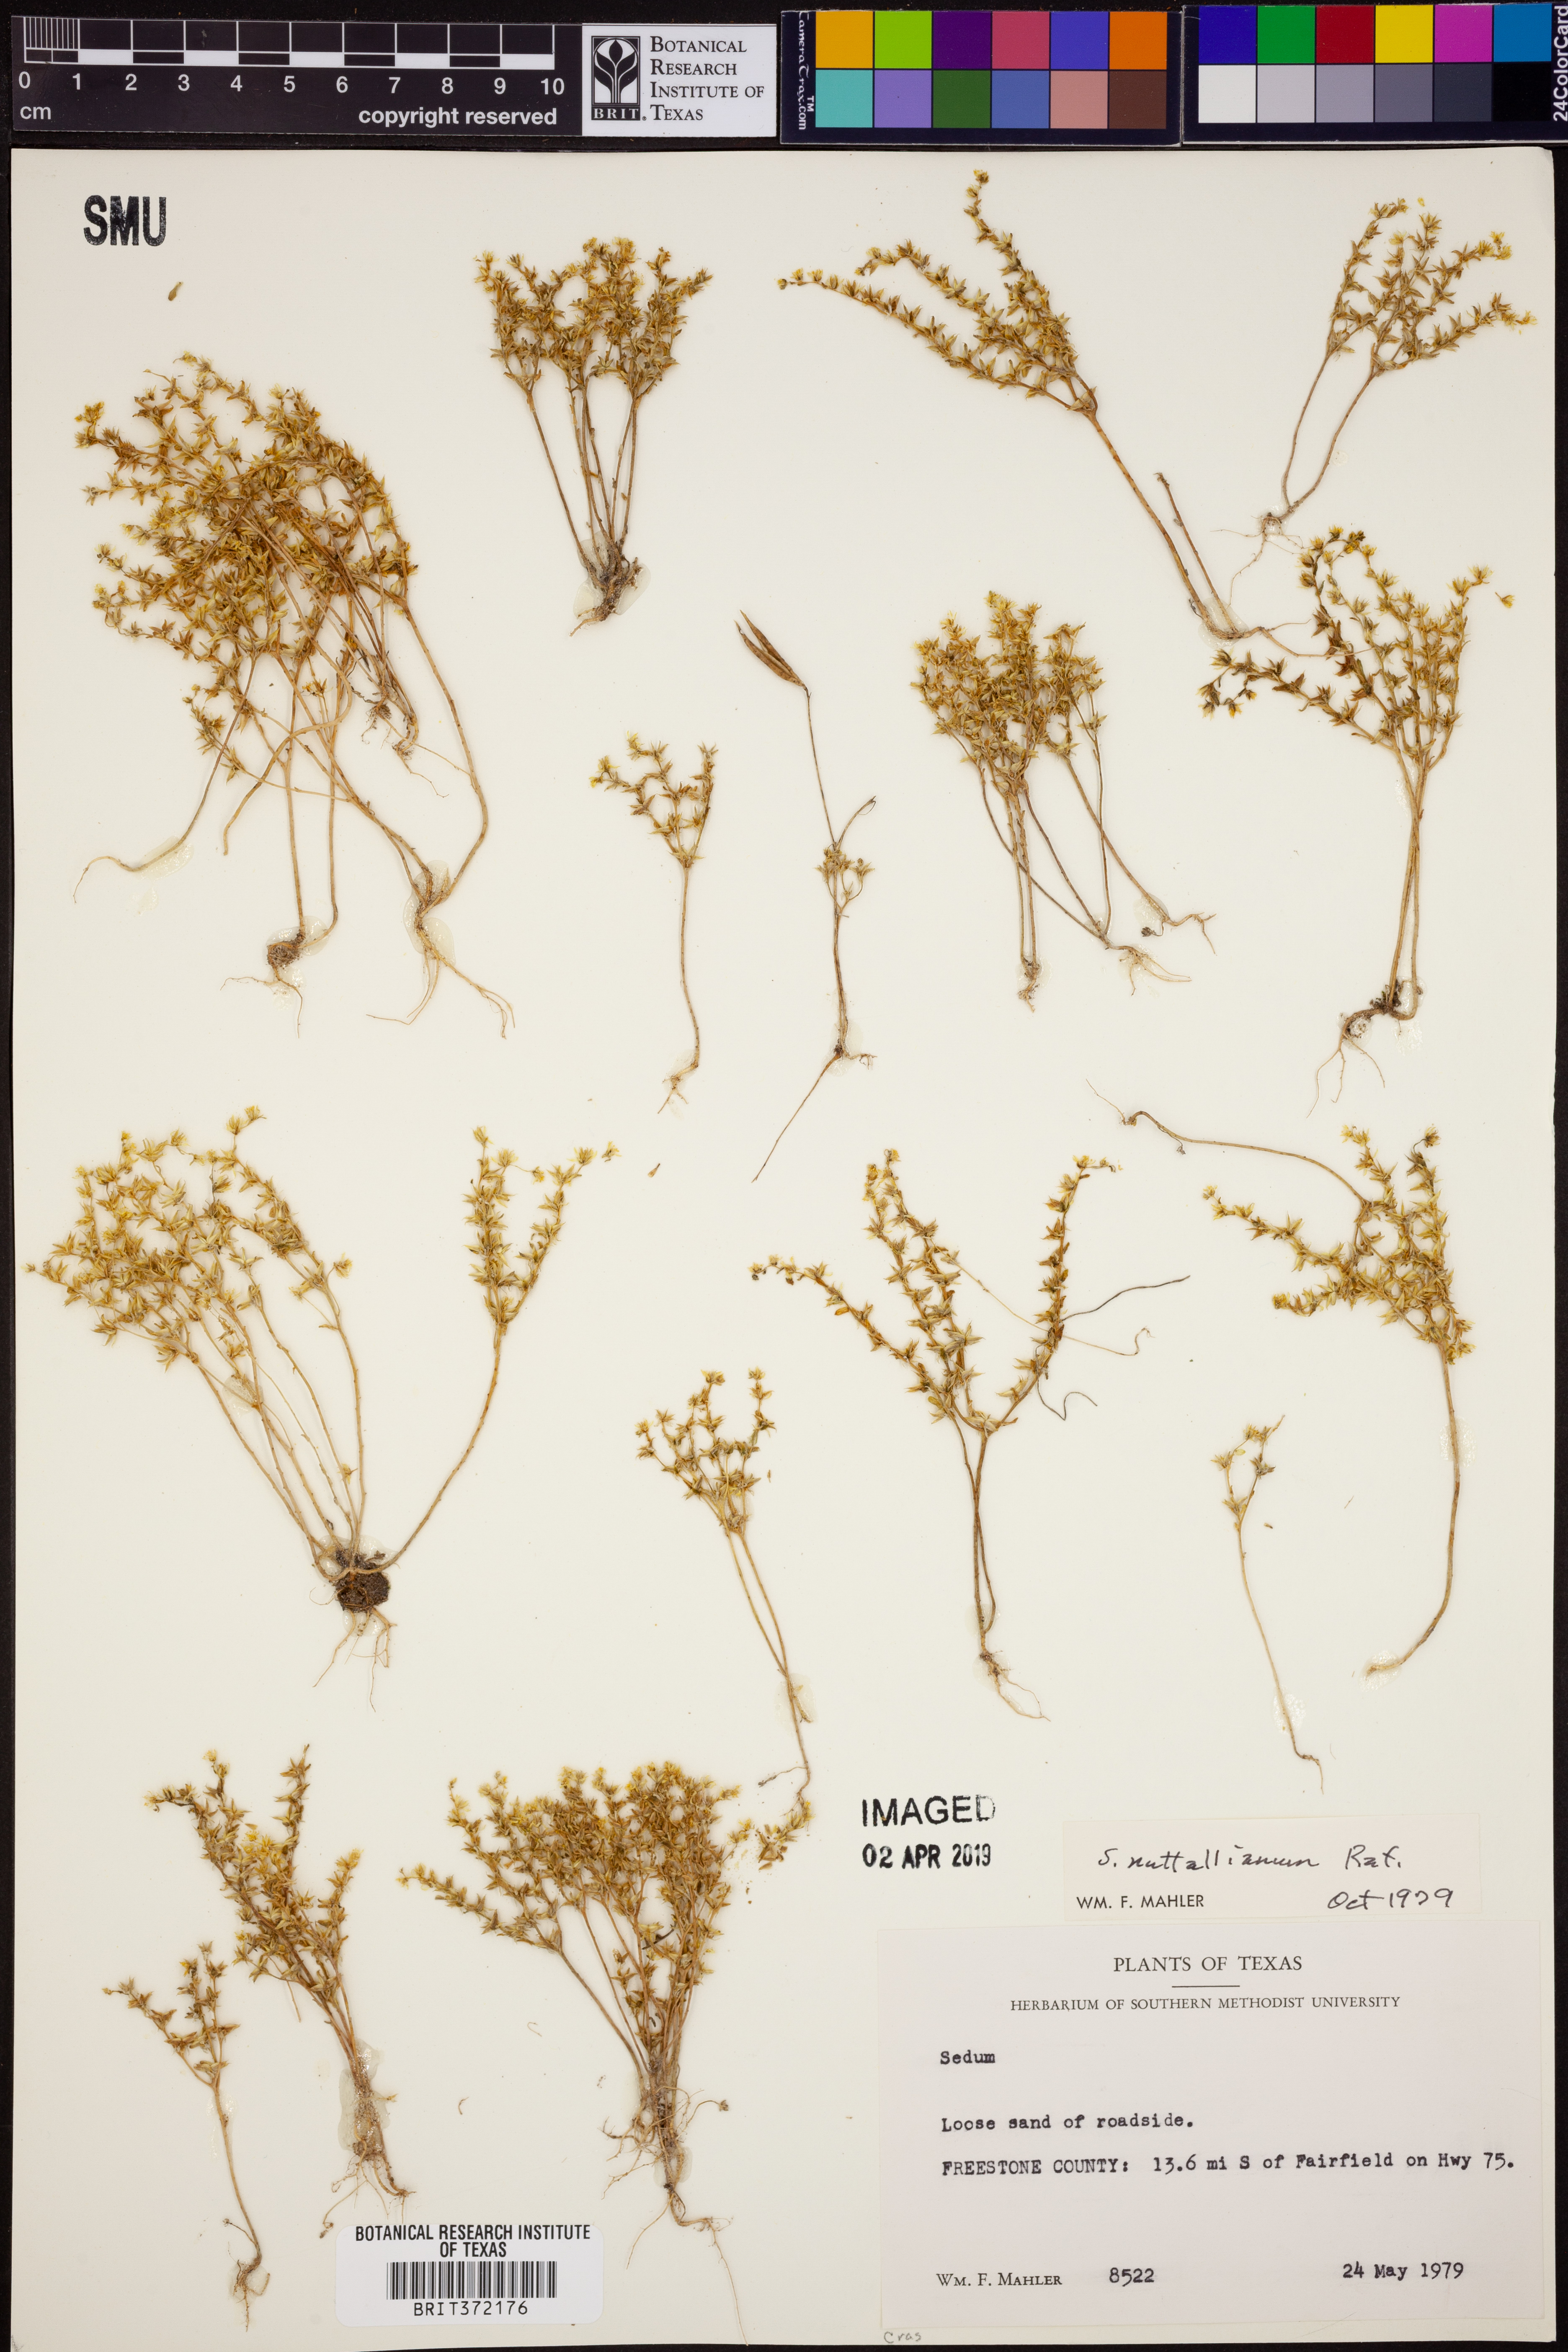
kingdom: Plantae
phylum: Tracheophyta
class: Magnoliopsida
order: Saxifragales
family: Crassulaceae
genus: Sedum
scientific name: Sedum nuttallii
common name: Yellow stonecrop
